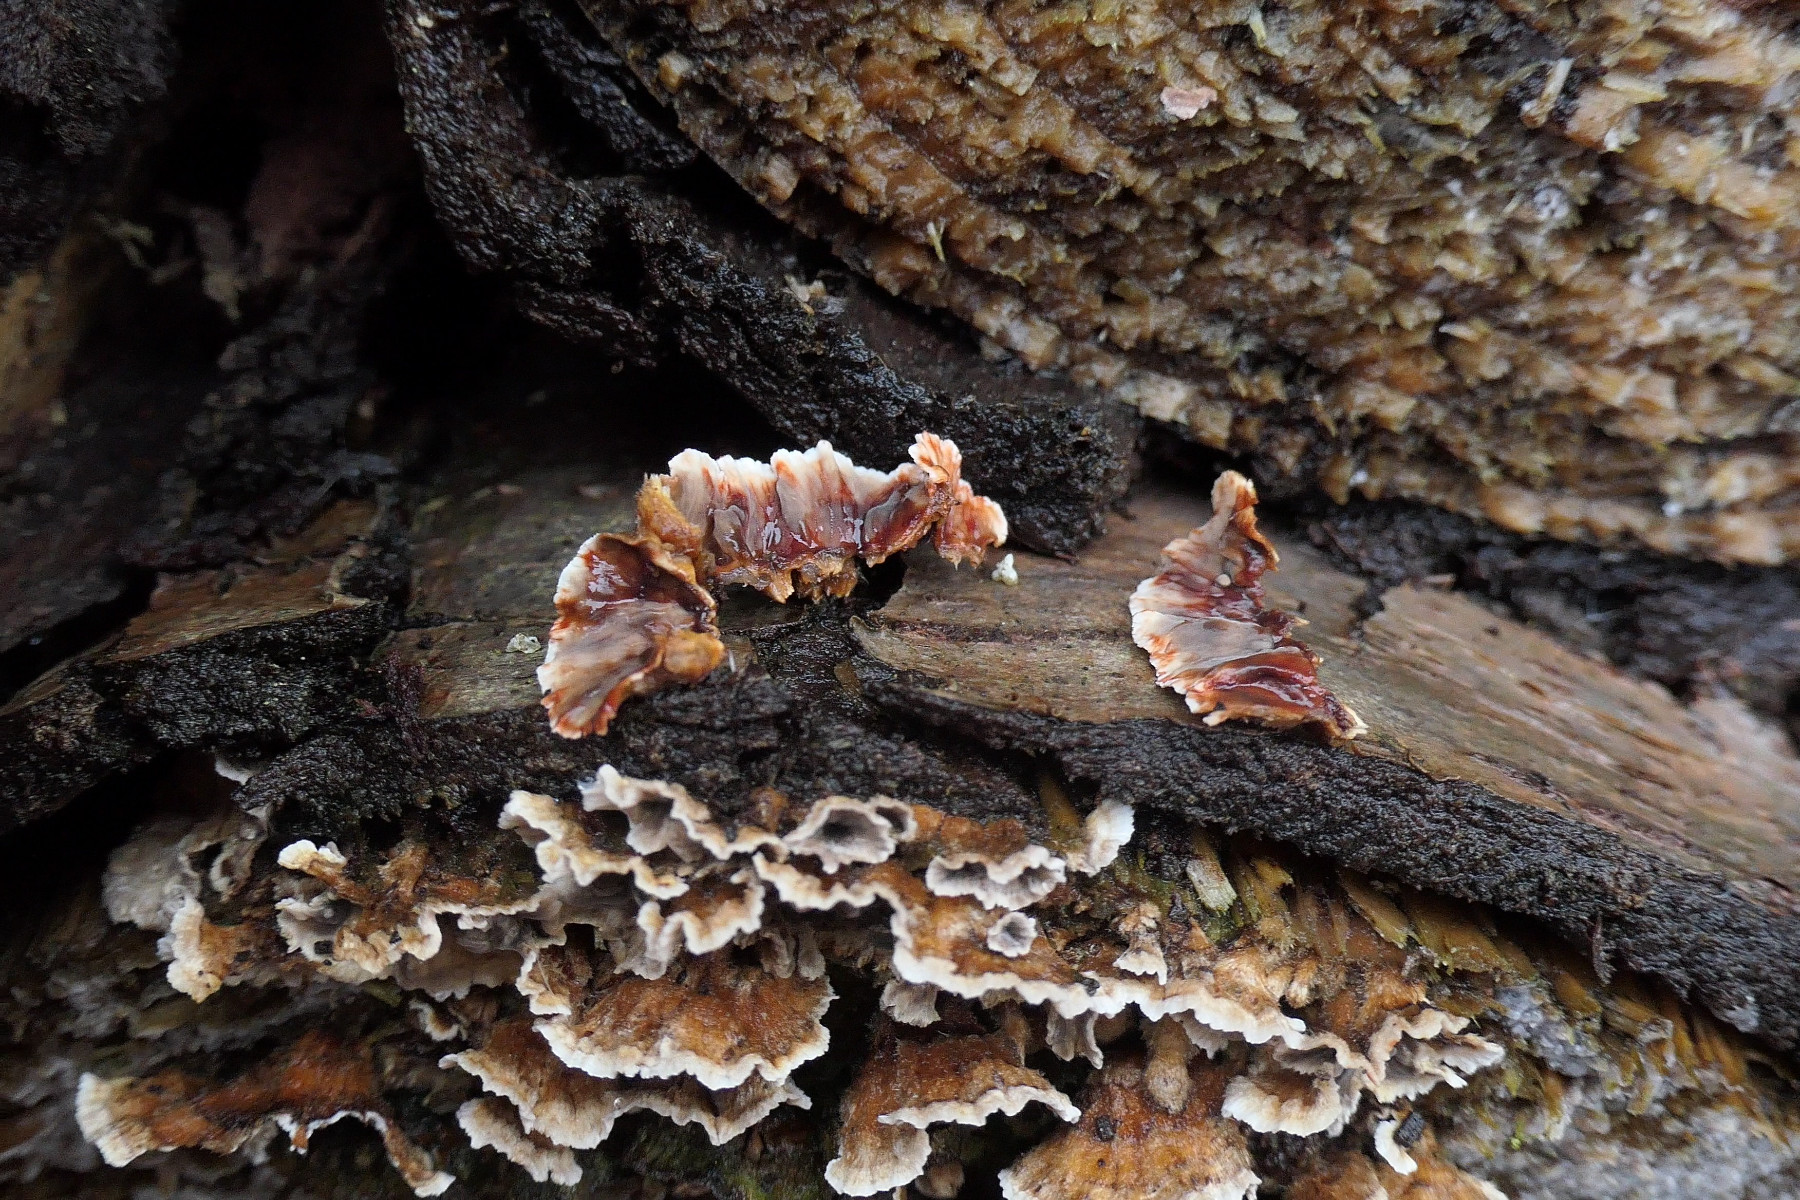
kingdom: Fungi
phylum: Basidiomycota
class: Agaricomycetes
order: Russulales
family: Stereaceae
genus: Stereum
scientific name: Stereum sanguinolentum
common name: blødende lædersvamp
